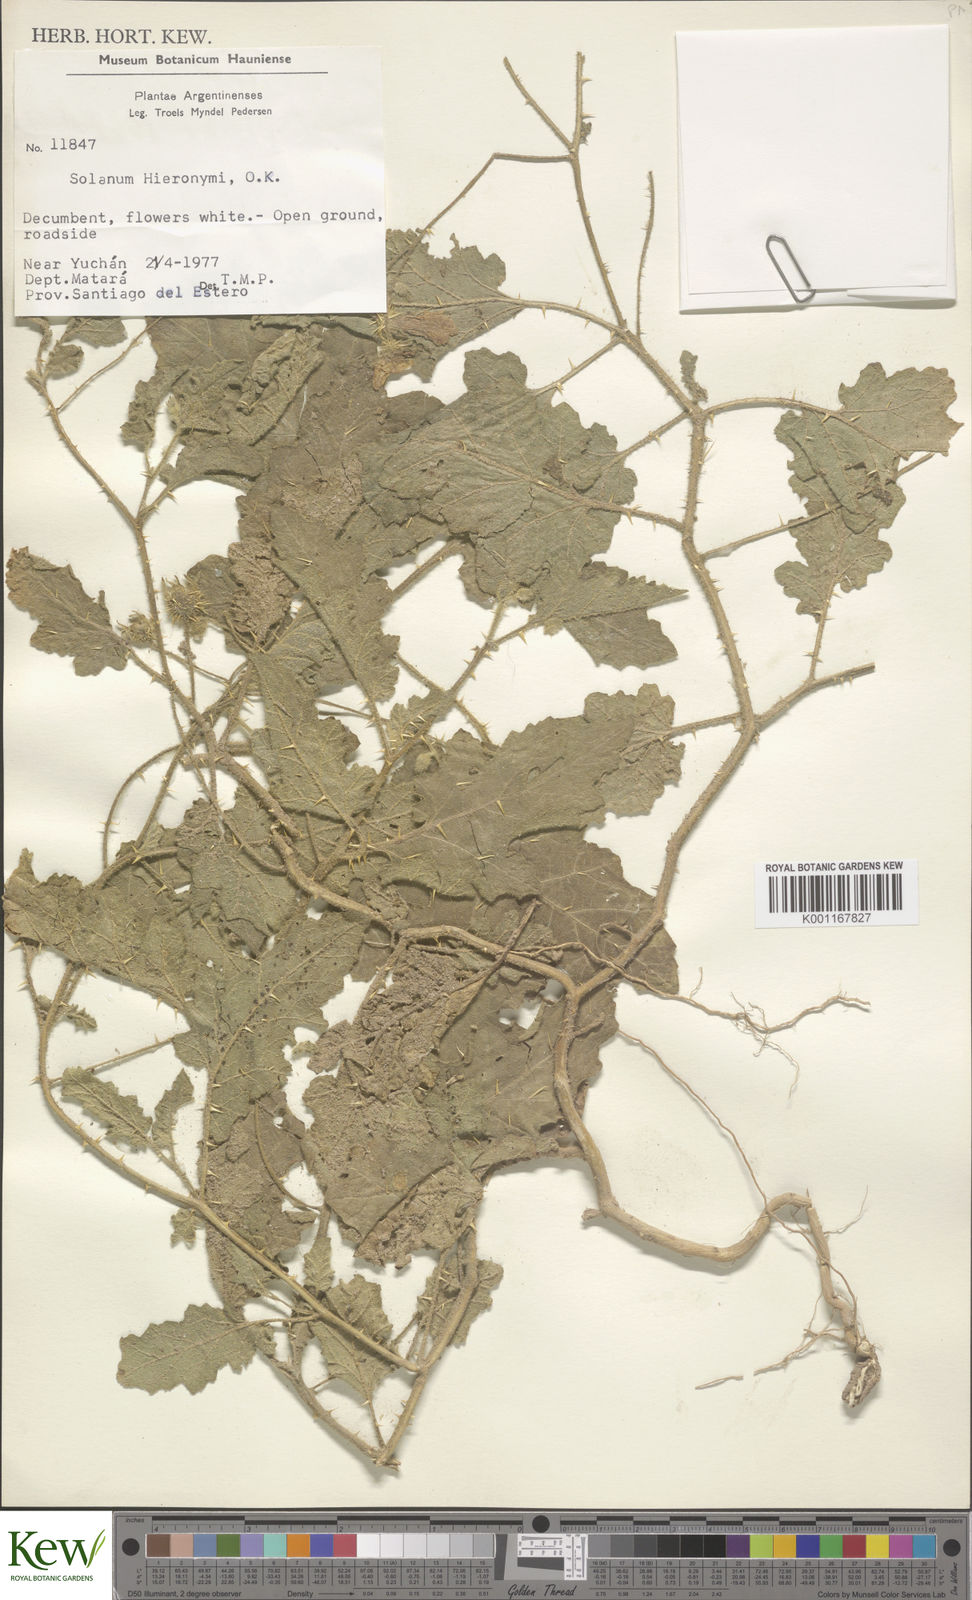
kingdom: Plantae
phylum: Tracheophyta
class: Magnoliopsida
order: Solanales
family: Solanaceae
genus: Solanum
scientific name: Solanum hieronymi
